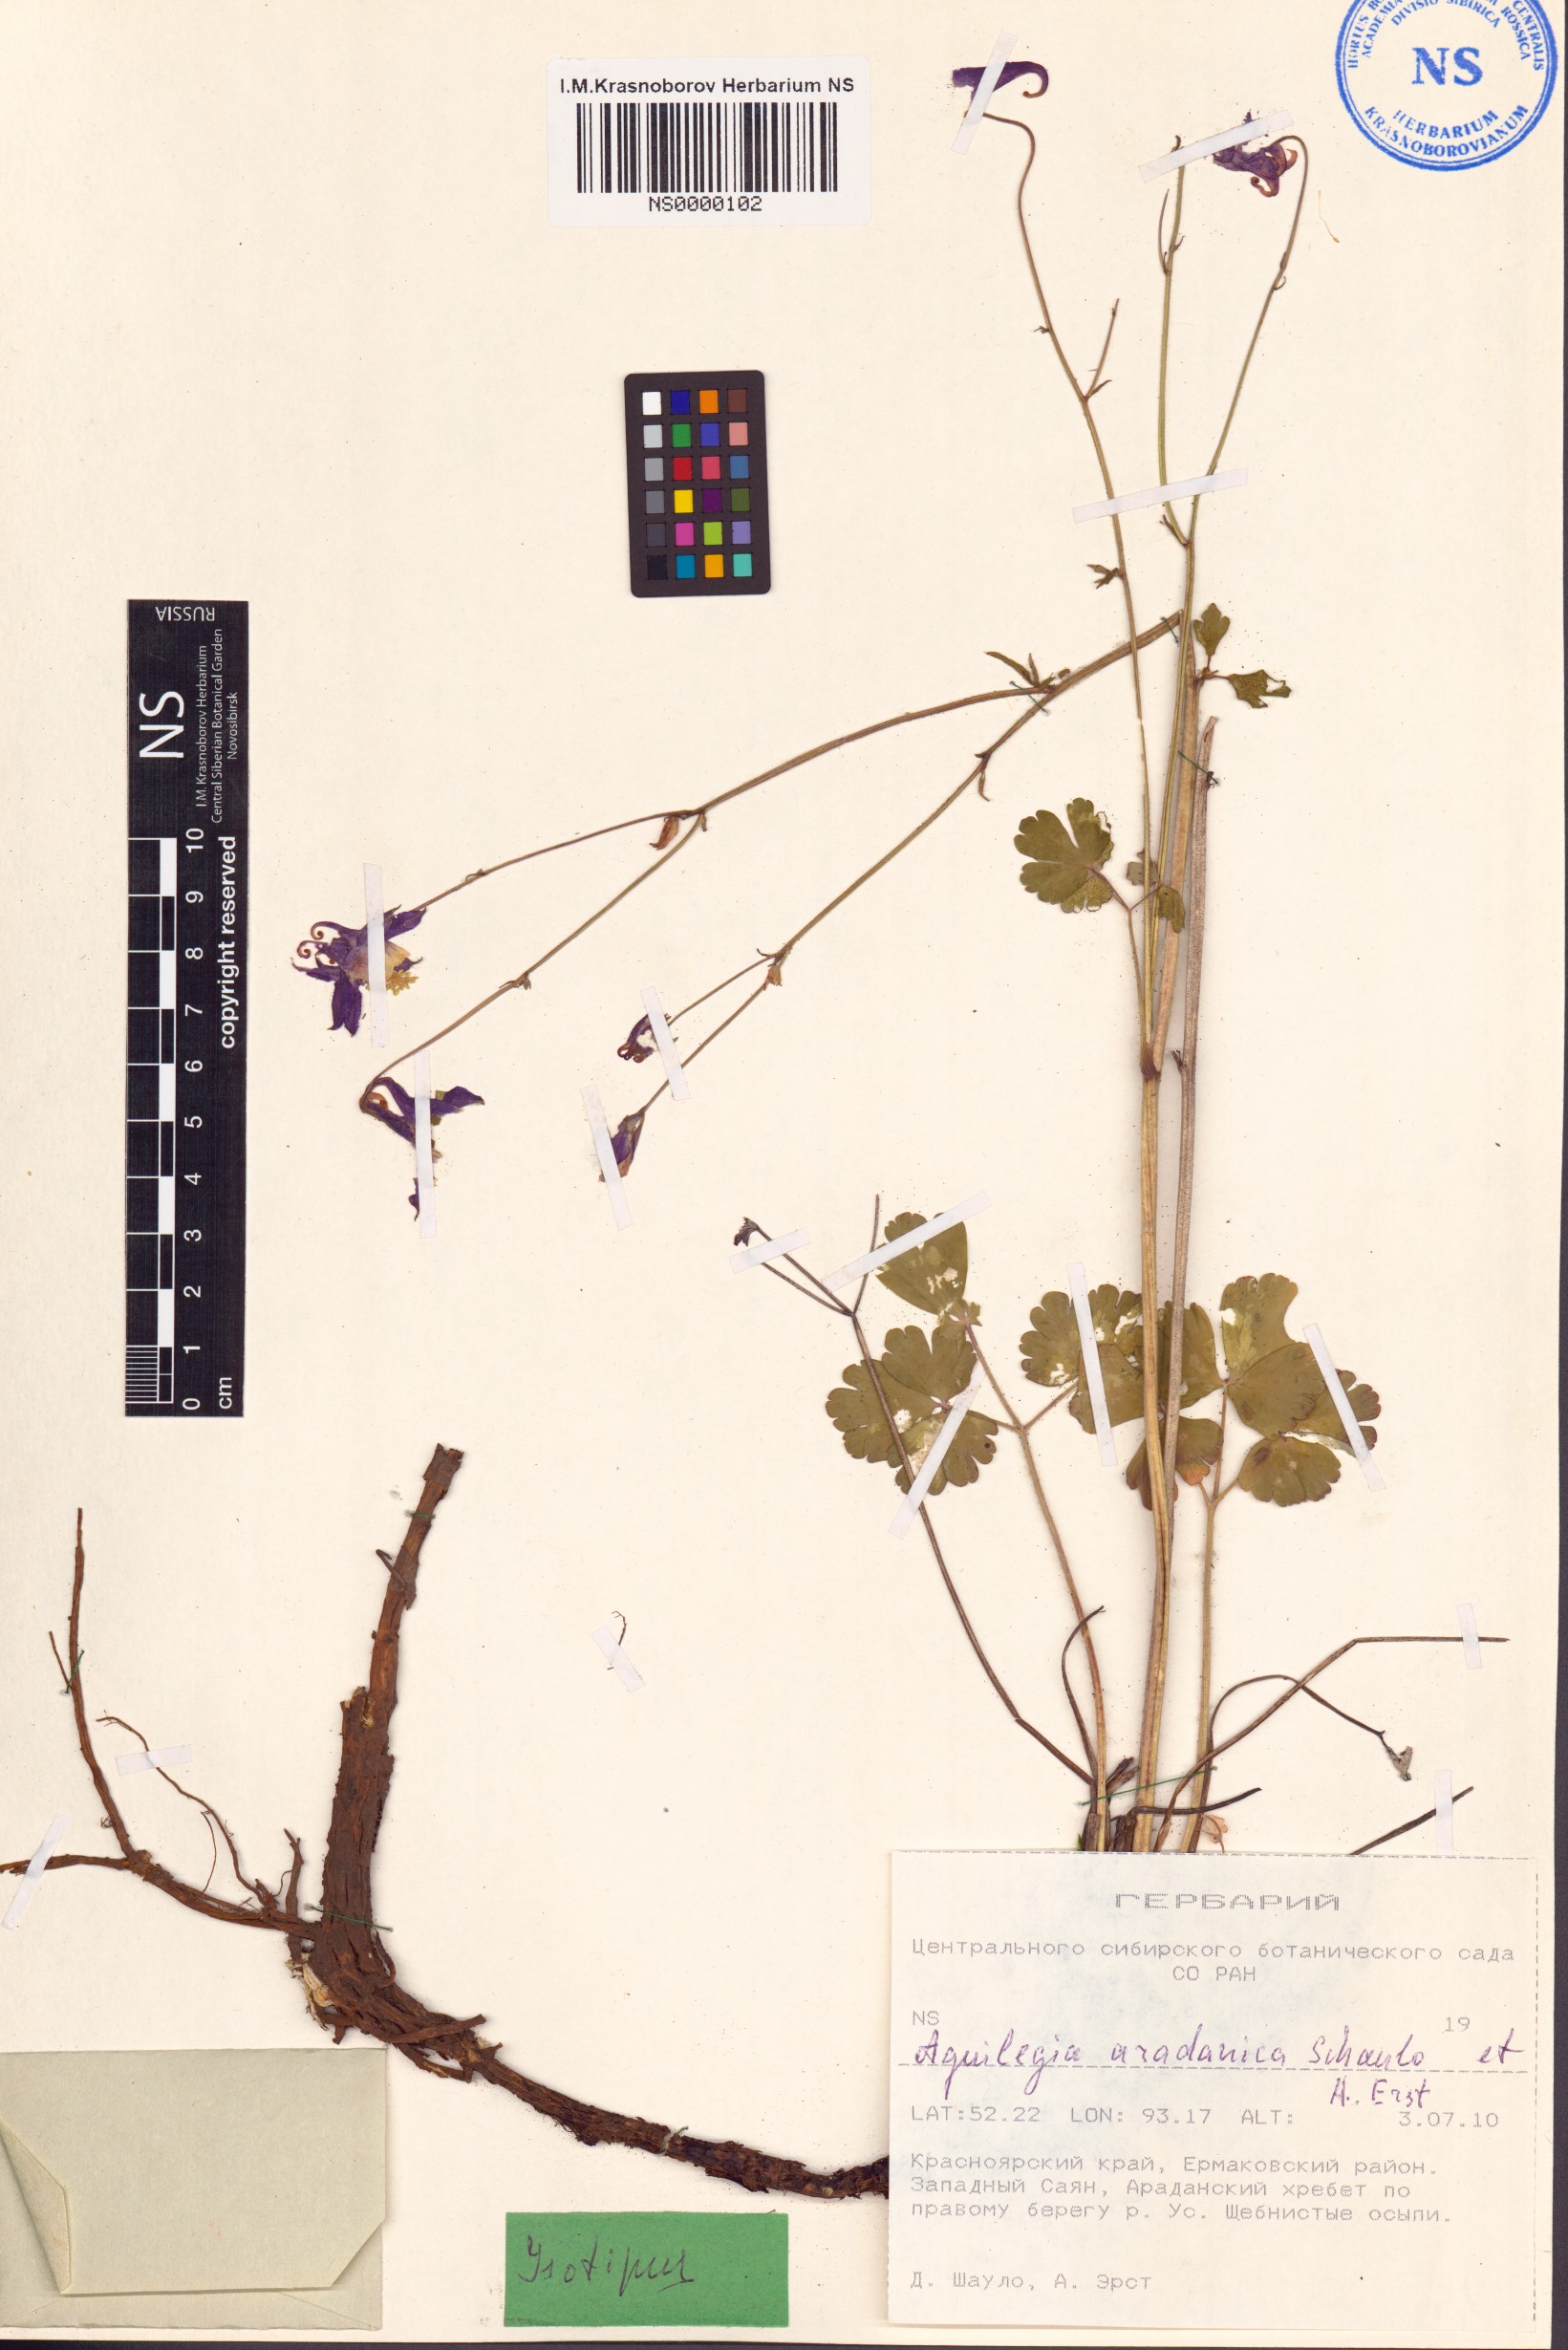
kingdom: Plantae
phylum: Tracheophyta
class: Magnoliopsida
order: Ranunculales
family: Ranunculaceae
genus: Aquilegia
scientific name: Aquilegia aradanica
